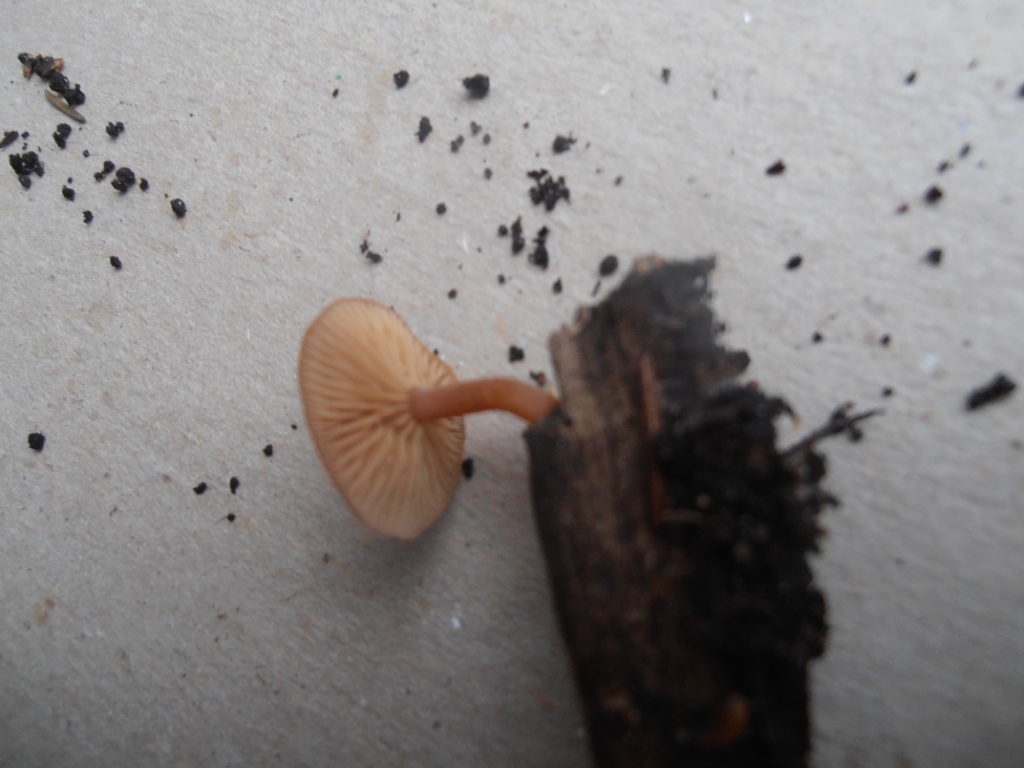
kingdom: Fungi
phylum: Basidiomycota
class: Agaricomycetes
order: Agaricales
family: Tubariaceae
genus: Tubaria
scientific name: Tubaria furfuracea
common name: kliddet fnughat
